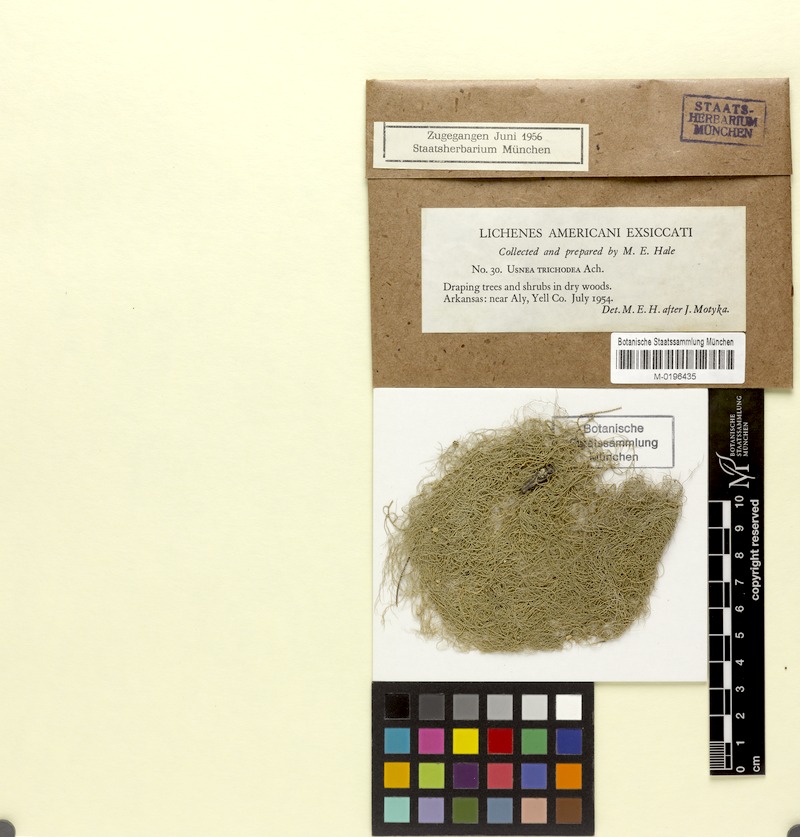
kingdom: Fungi
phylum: Ascomycota
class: Lecanoromycetes
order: Lecanorales
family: Parmeliaceae
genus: Usnea
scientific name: Usnea trichodea
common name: Bony beard lichen
